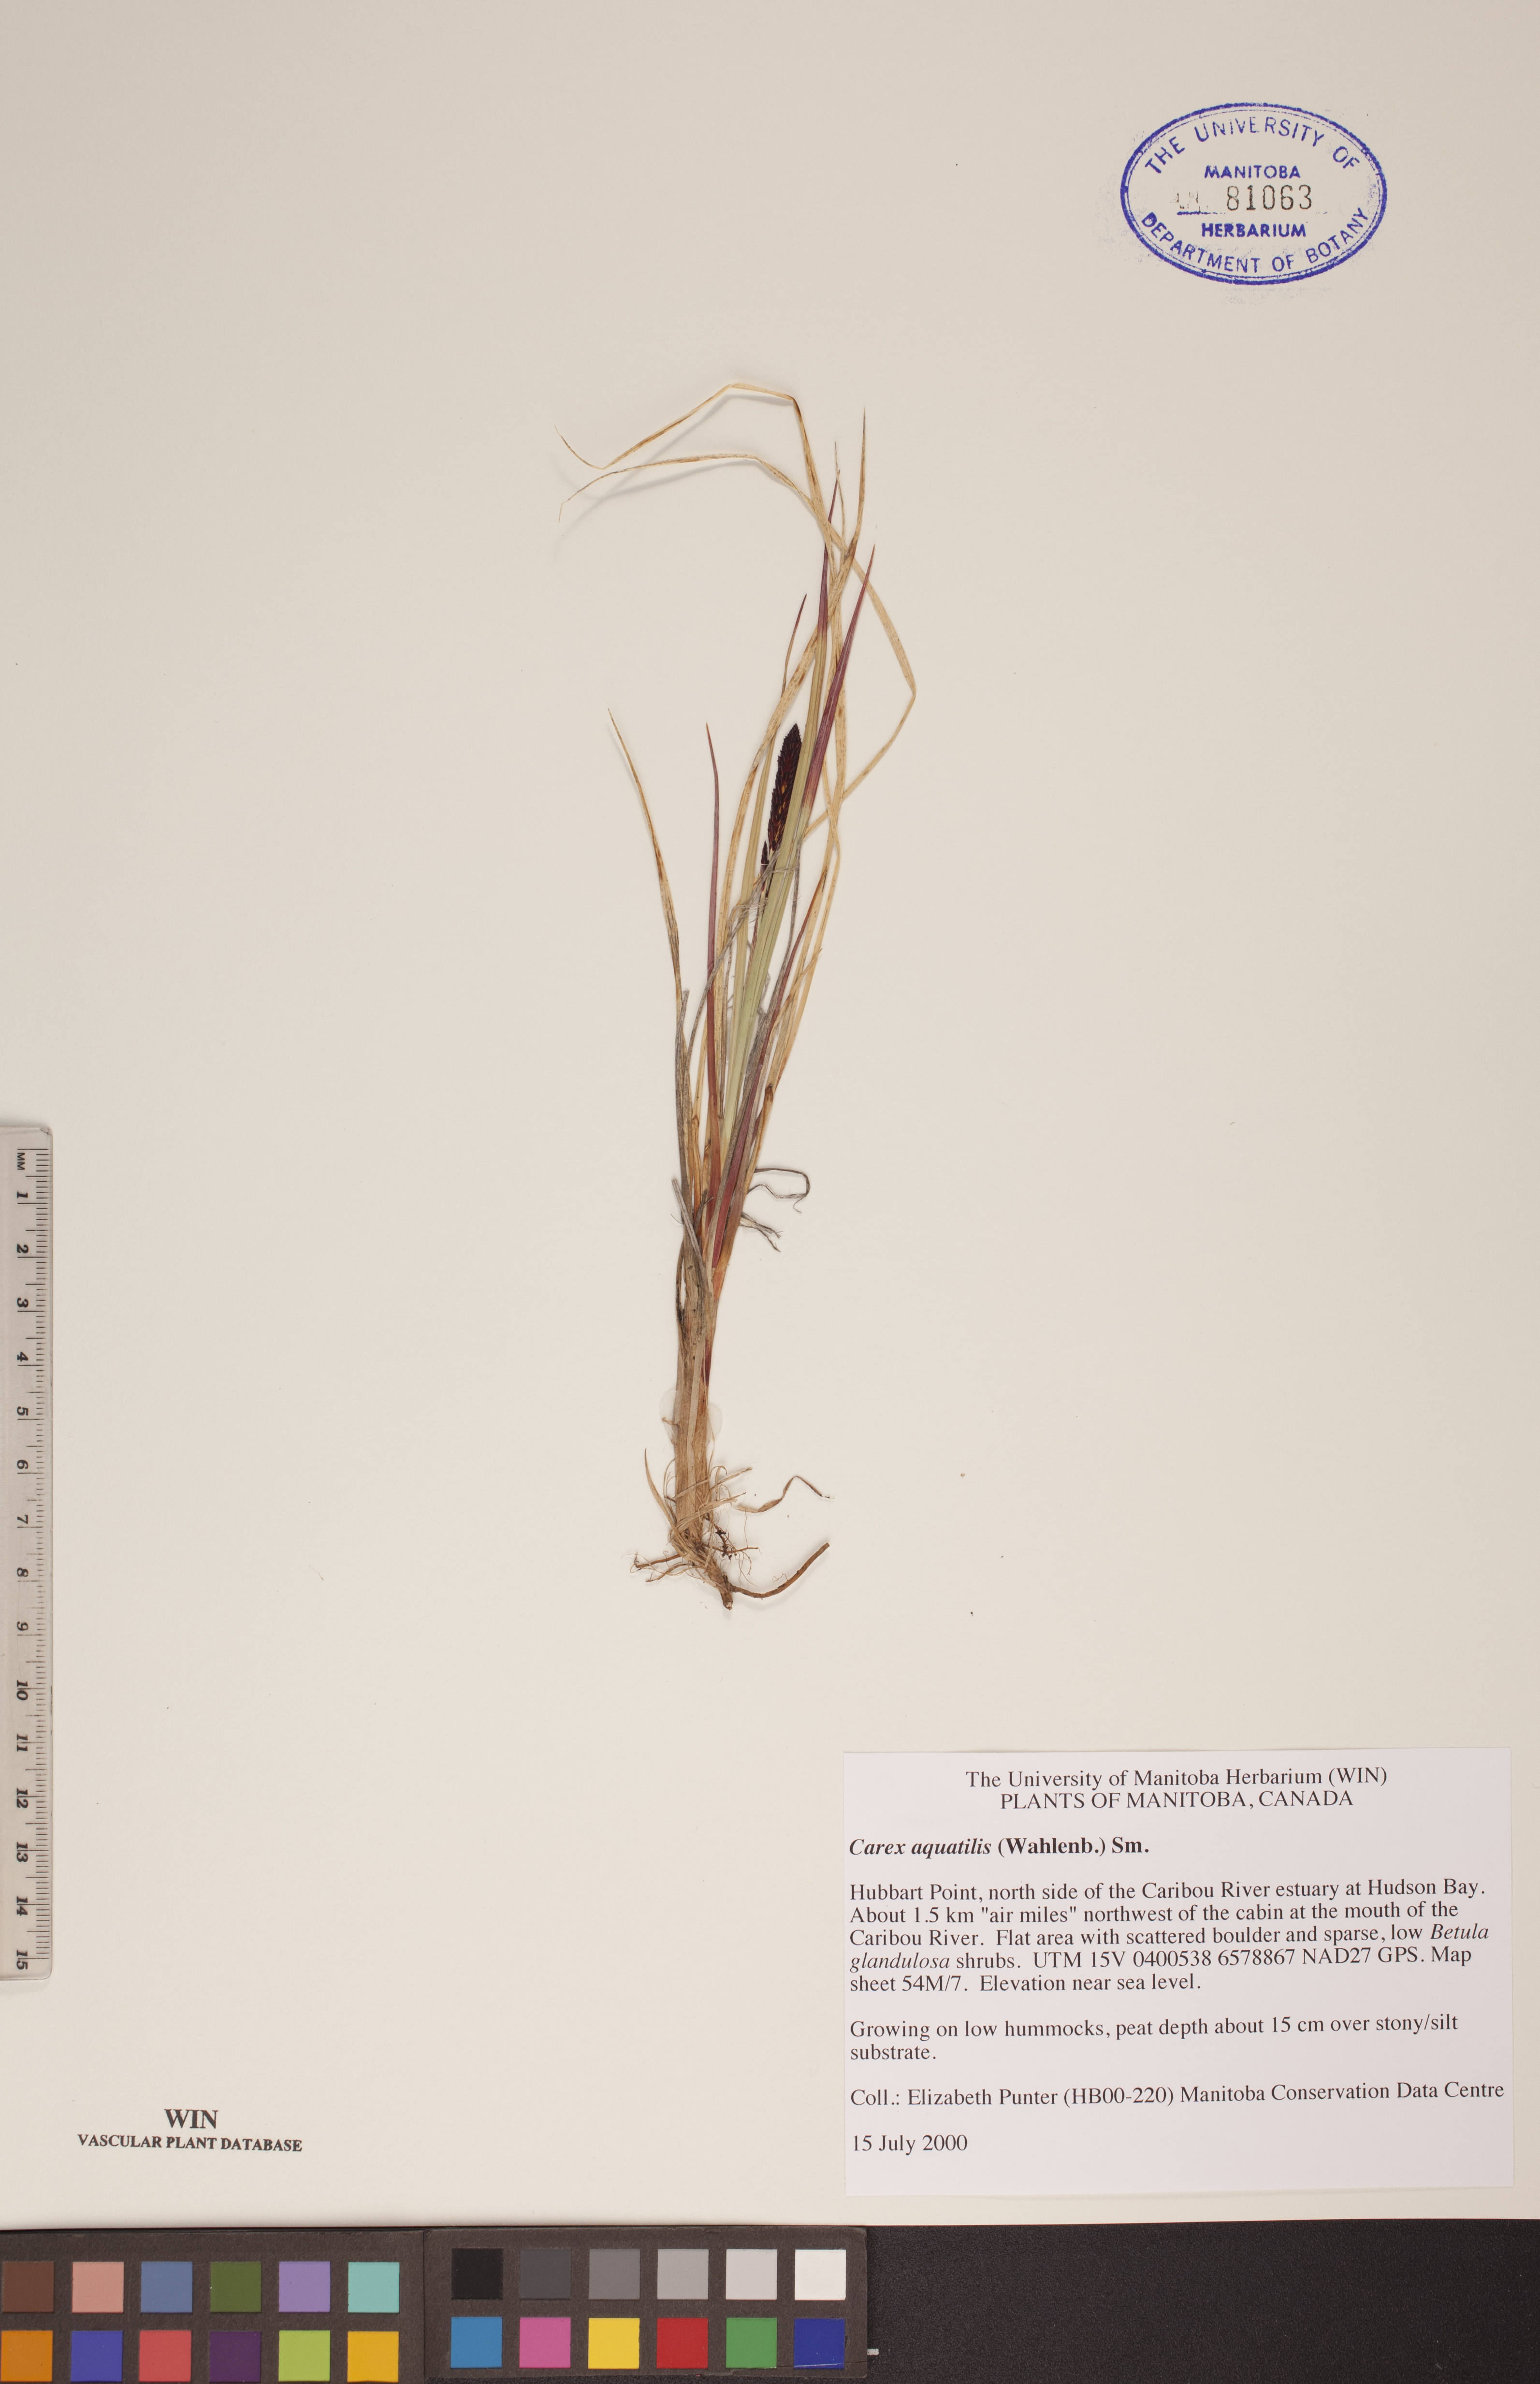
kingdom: Plantae
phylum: Tracheophyta
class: Liliopsida
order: Poales
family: Cyperaceae
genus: Carex
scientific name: Carex aquatilis
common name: Water sedge
